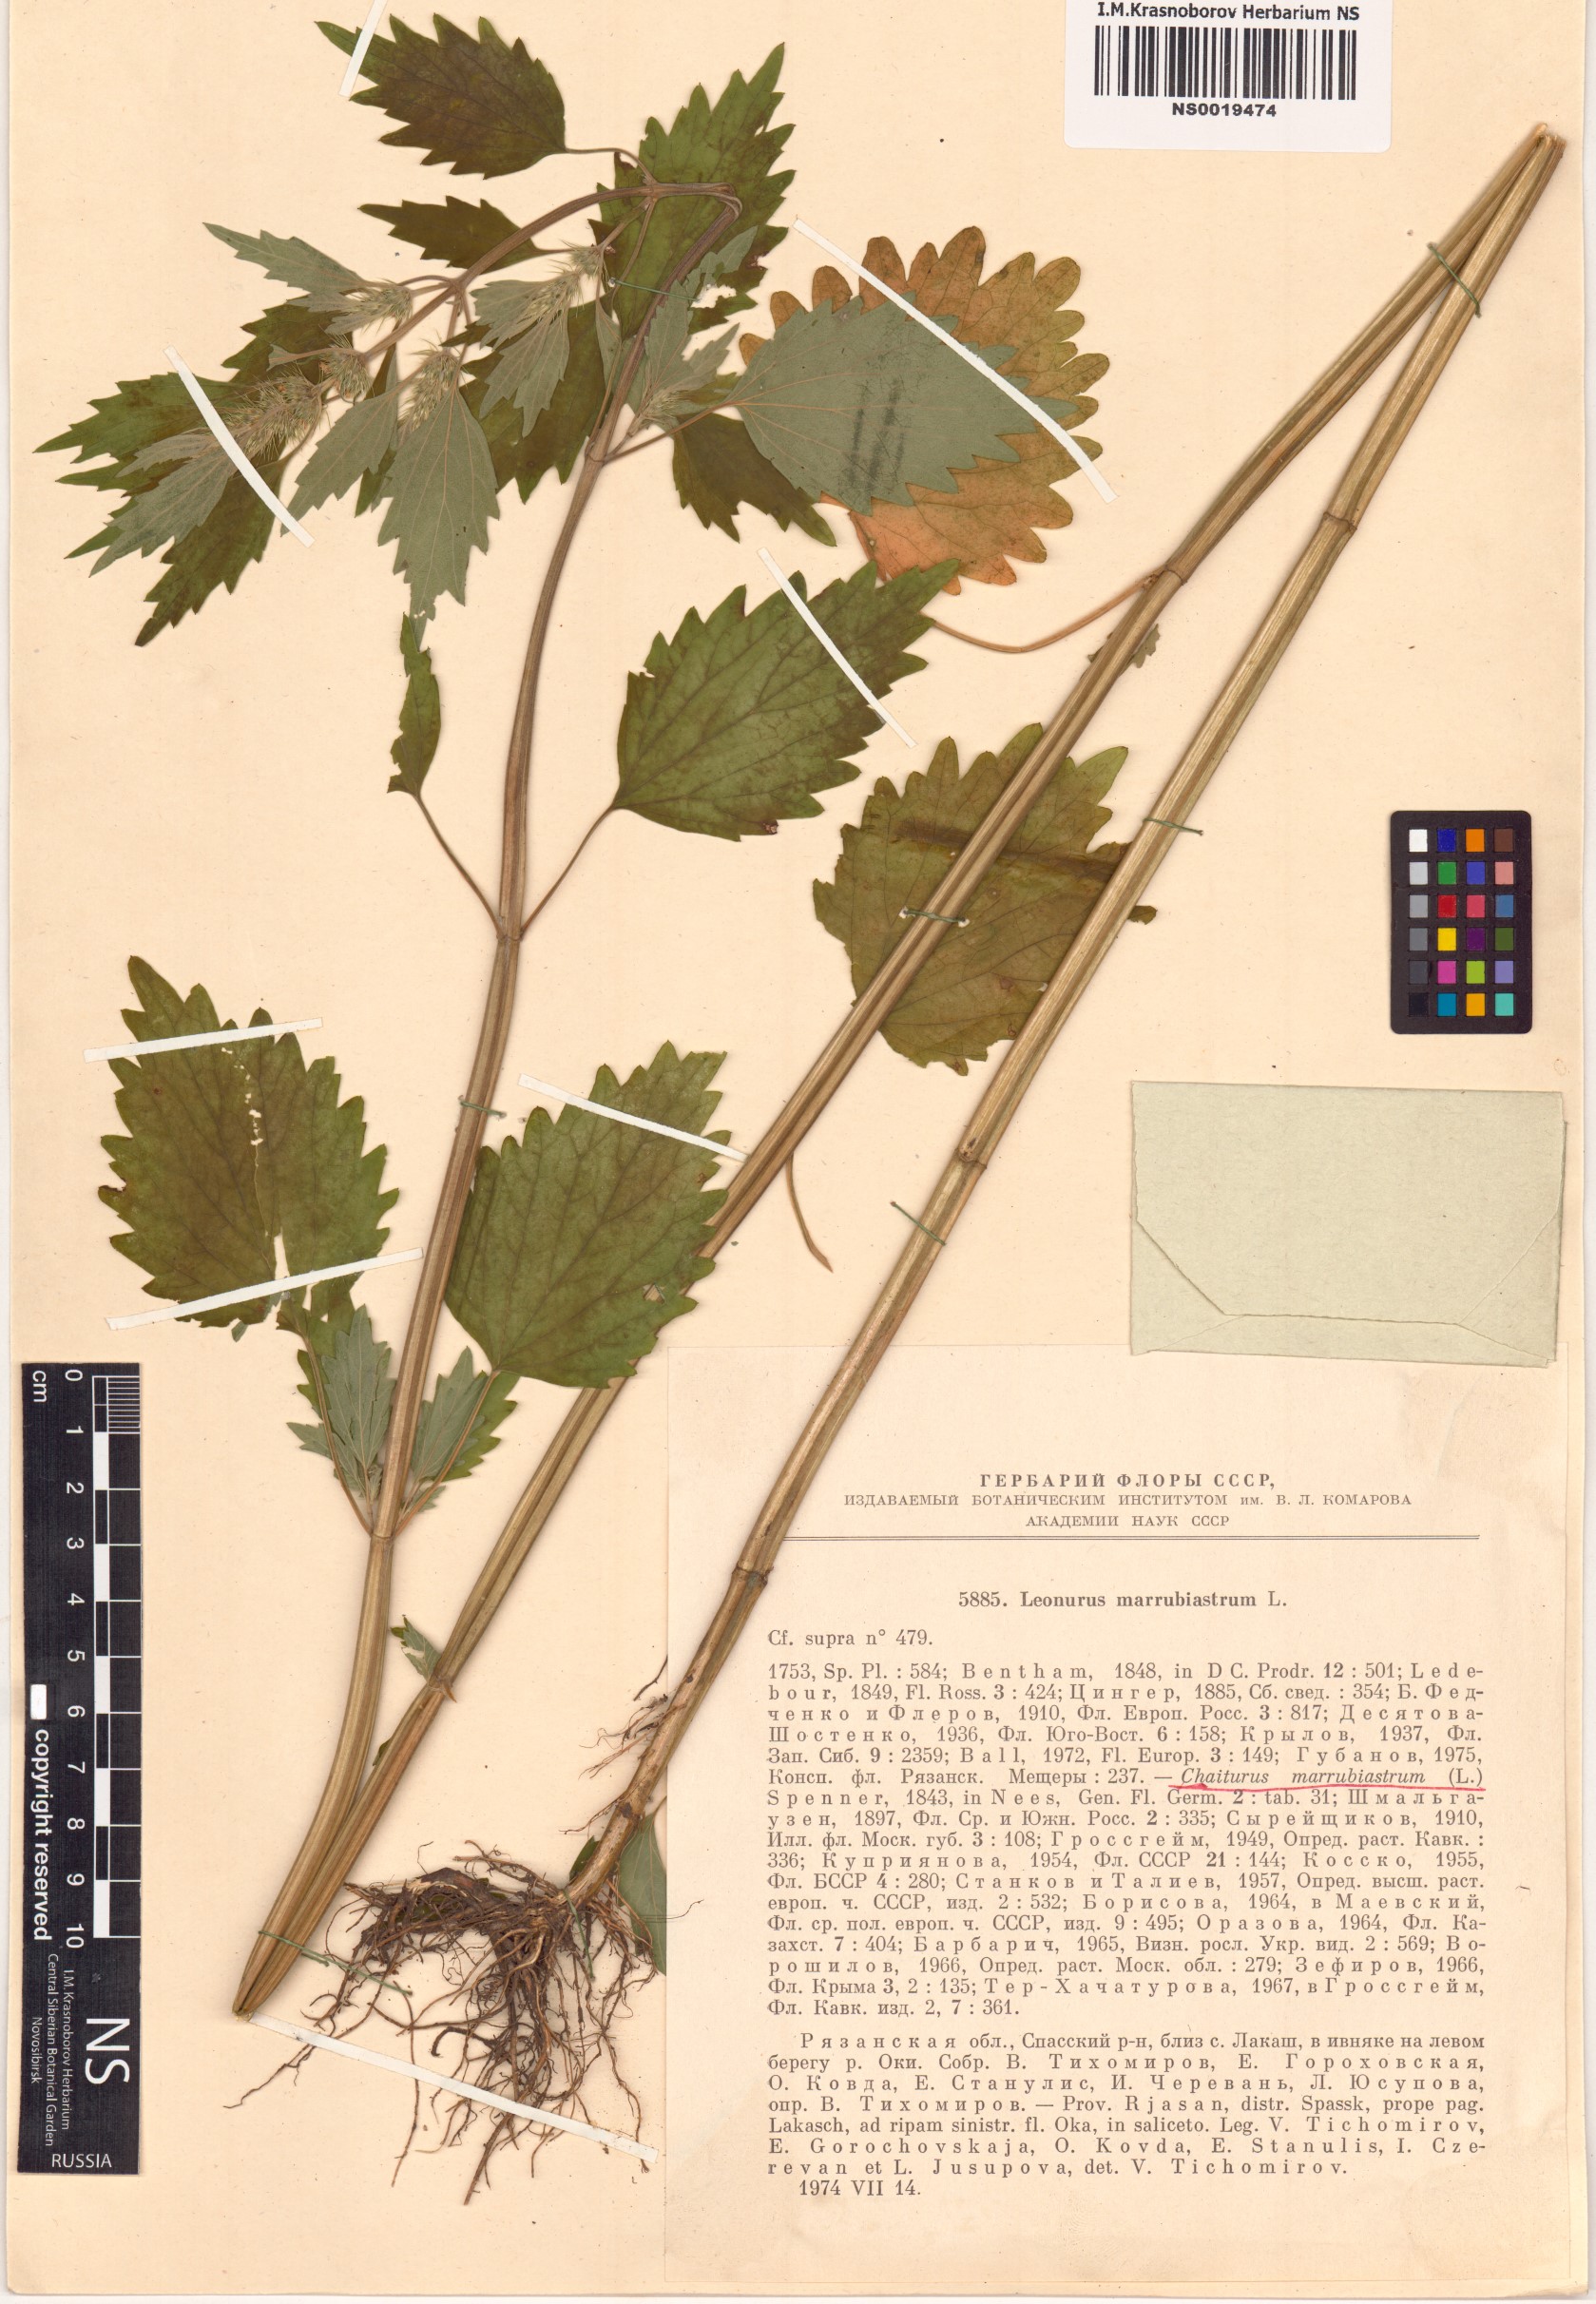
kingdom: Plantae
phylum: Tracheophyta
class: Magnoliopsida
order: Lamiales
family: Lamiaceae
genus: Chaiturus
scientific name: Chaiturus marrubiastrum
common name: Lion's tail
